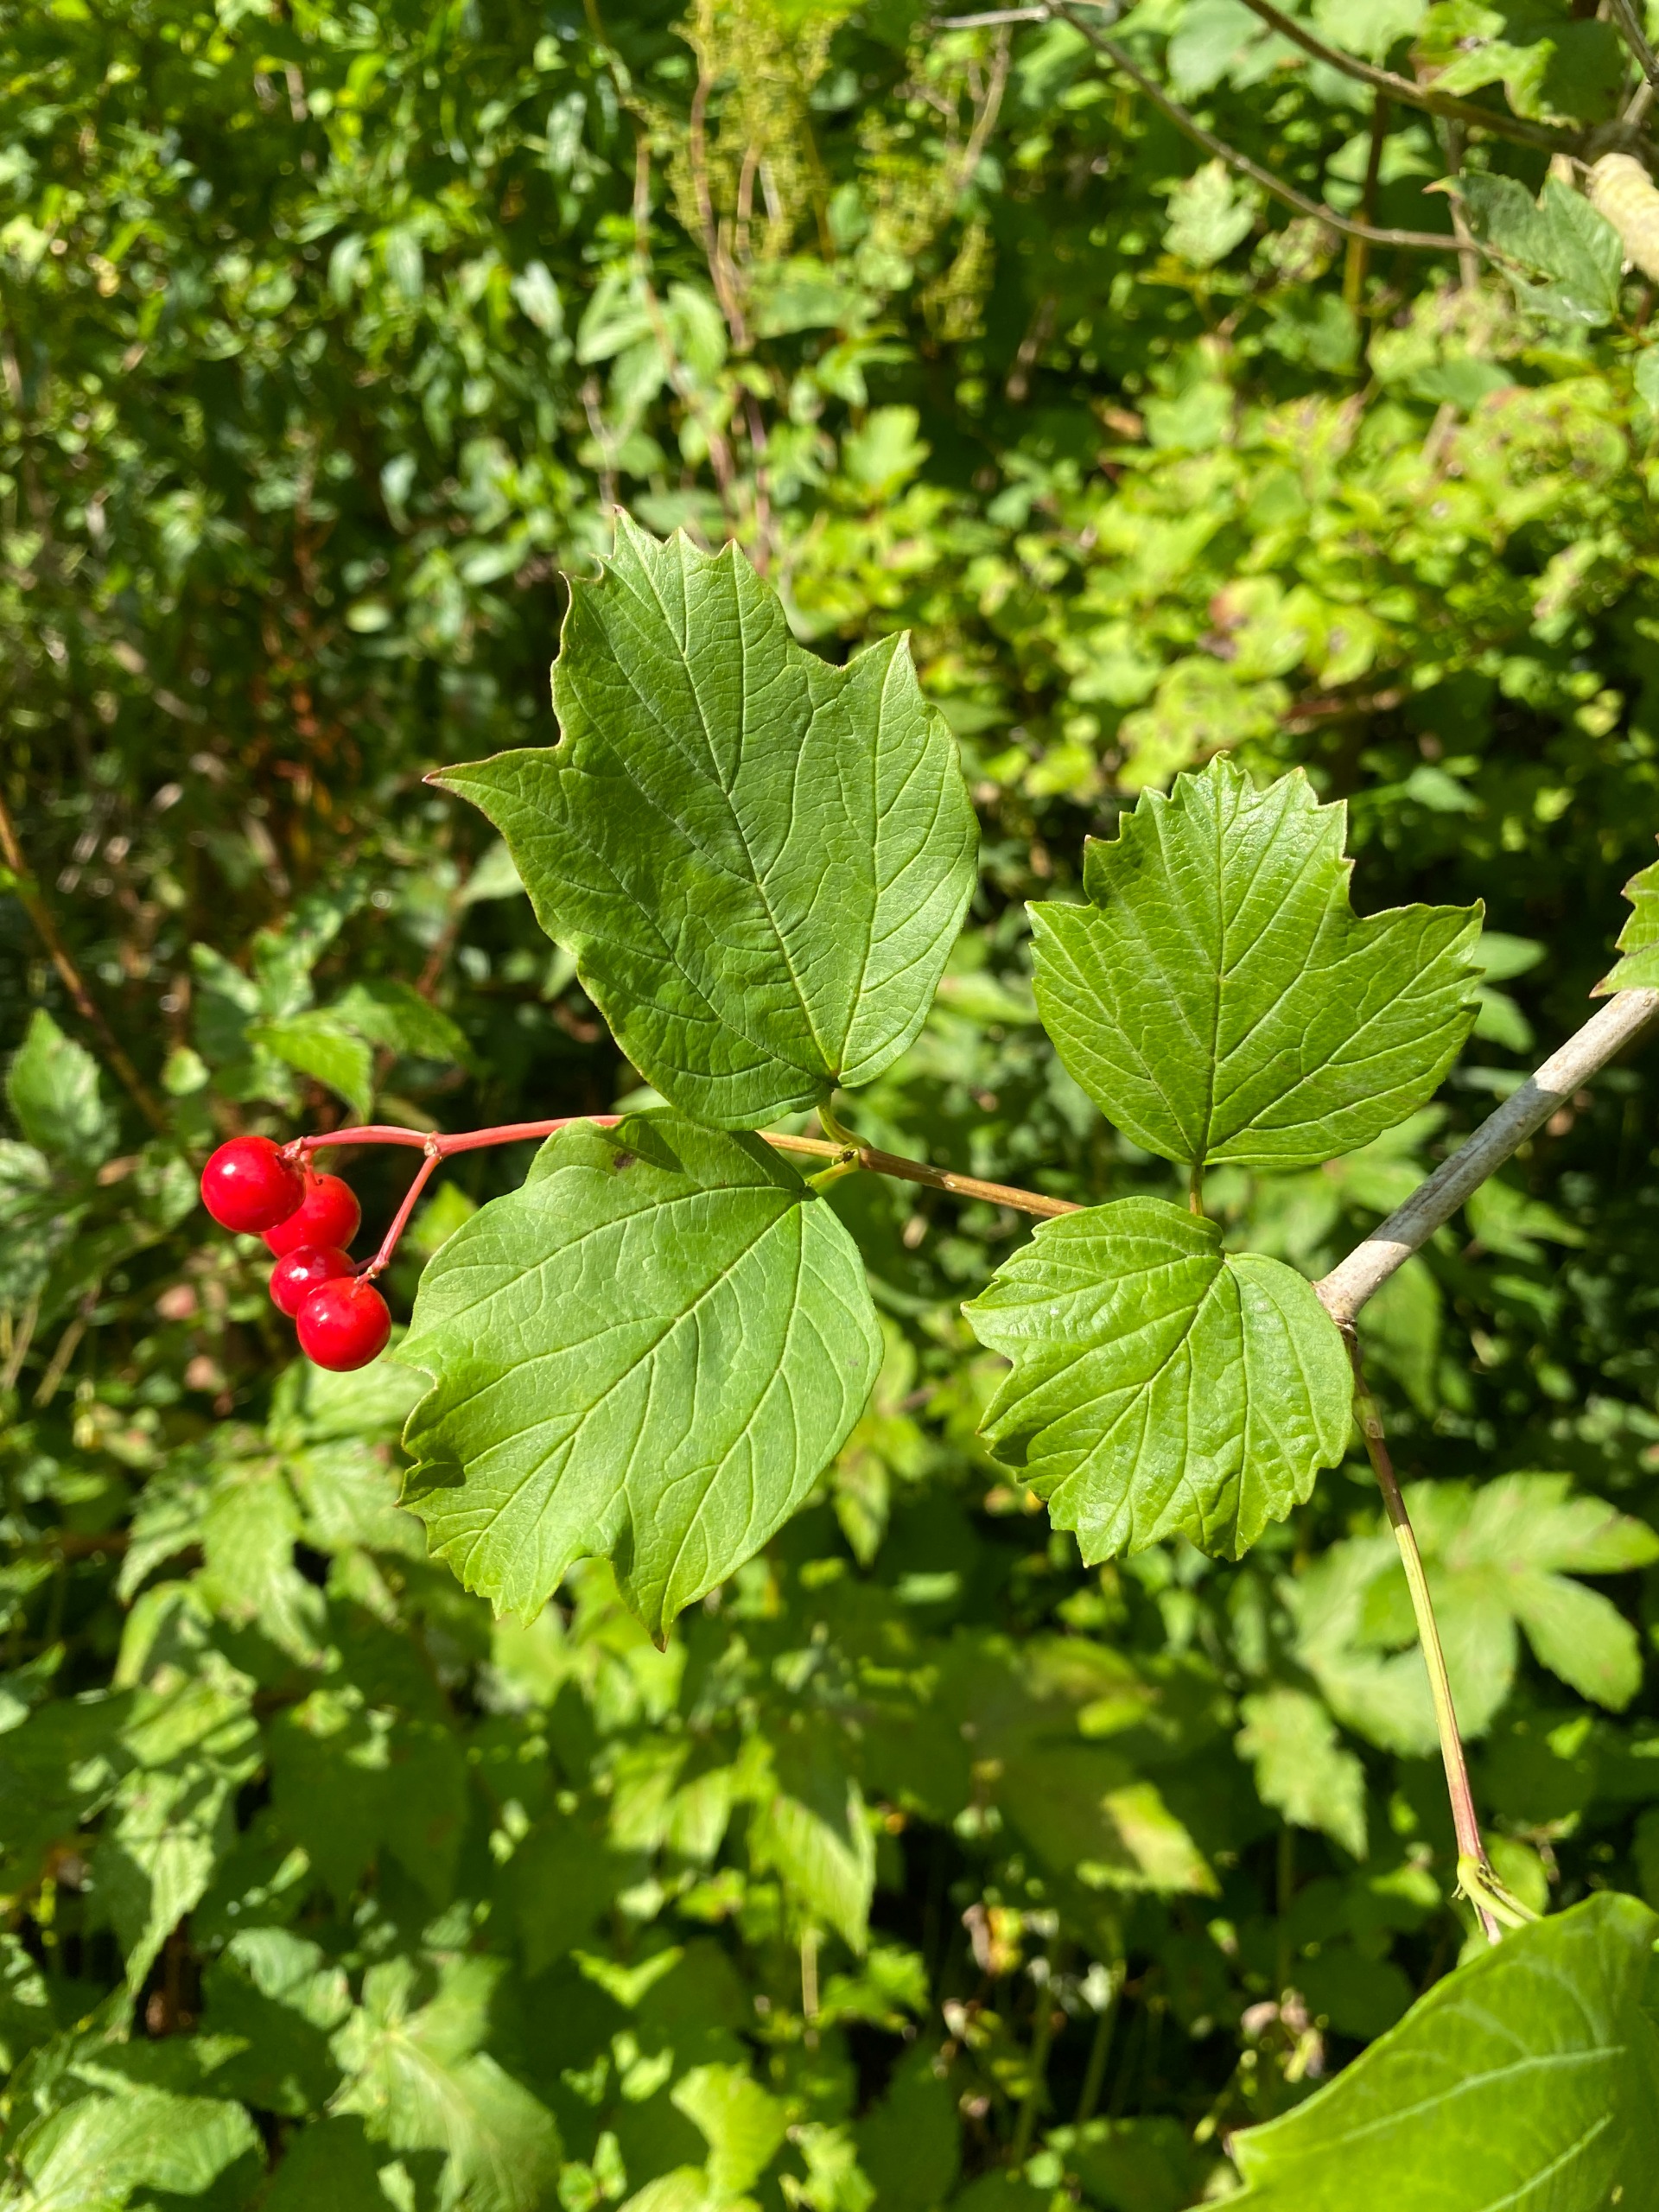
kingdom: Plantae
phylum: Tracheophyta
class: Magnoliopsida
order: Dipsacales
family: Viburnaceae
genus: Viburnum
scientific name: Viburnum opulus
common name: Kvalkved
